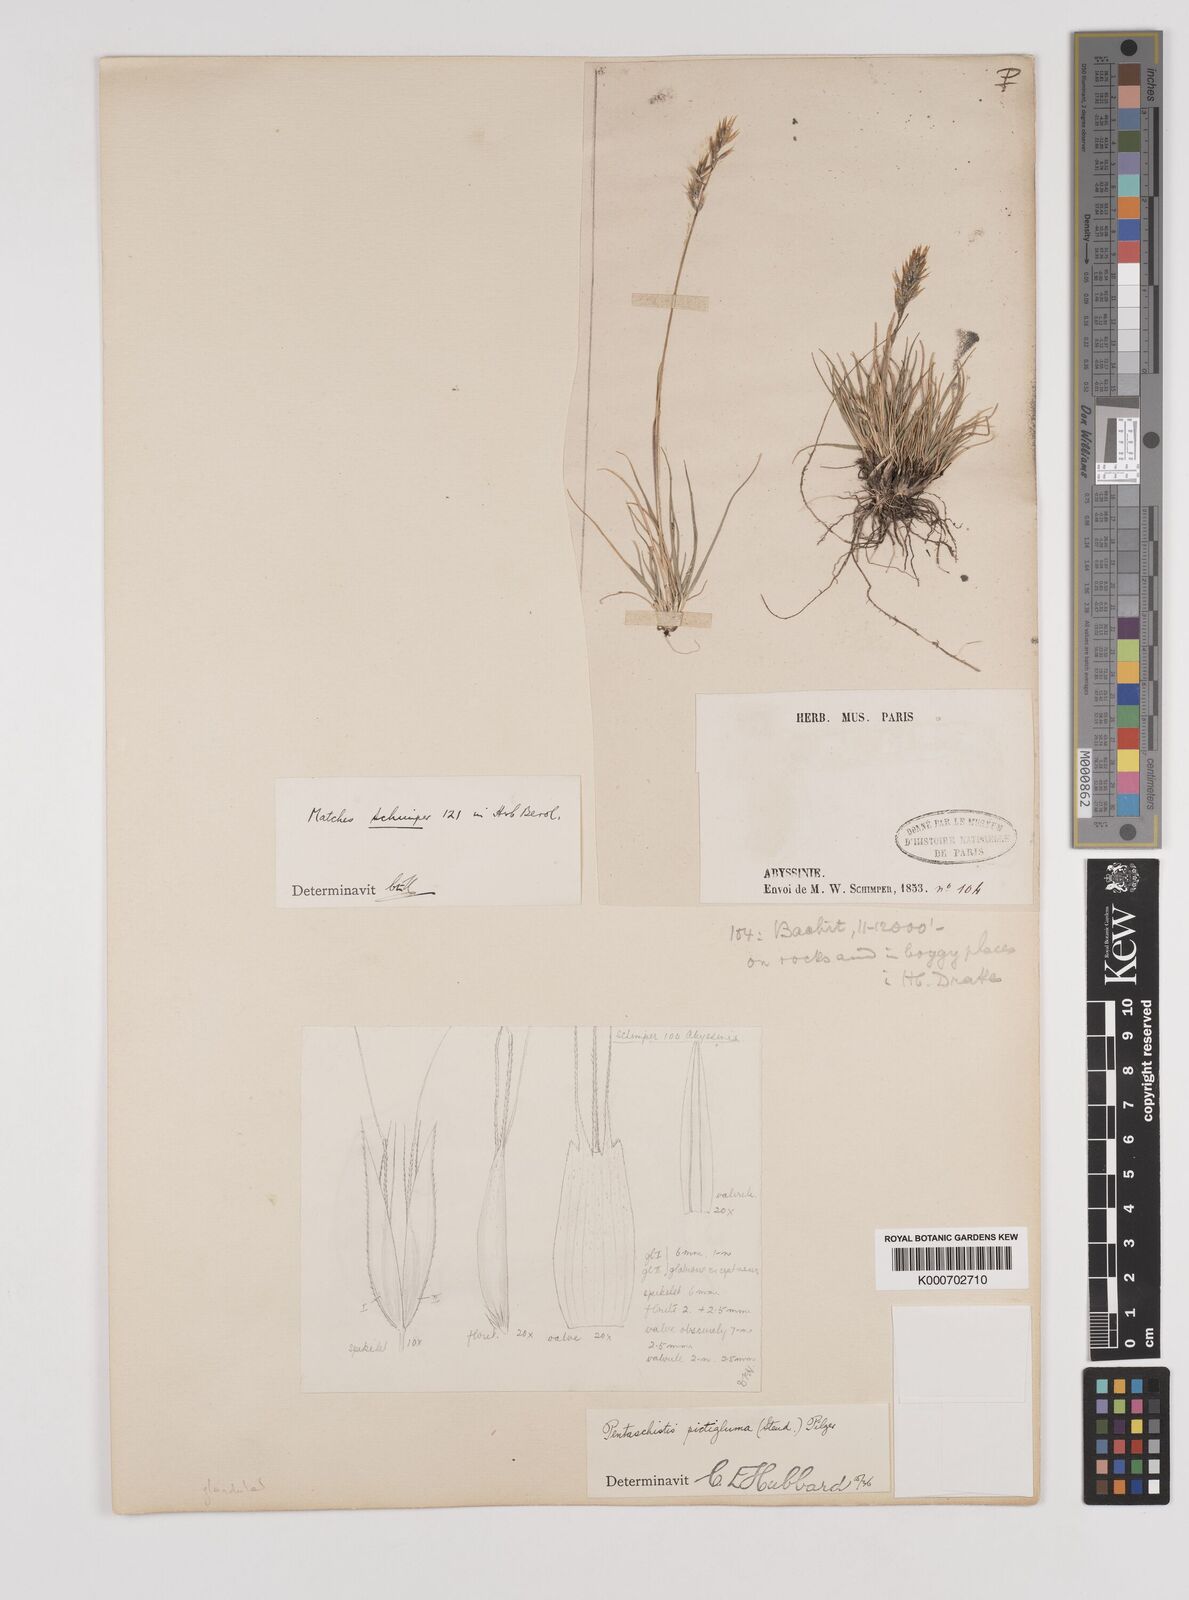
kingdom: Plantae
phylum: Tracheophyta
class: Liliopsida
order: Poales
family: Poaceae
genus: Pentameris
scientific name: Pentameris pictigluma
